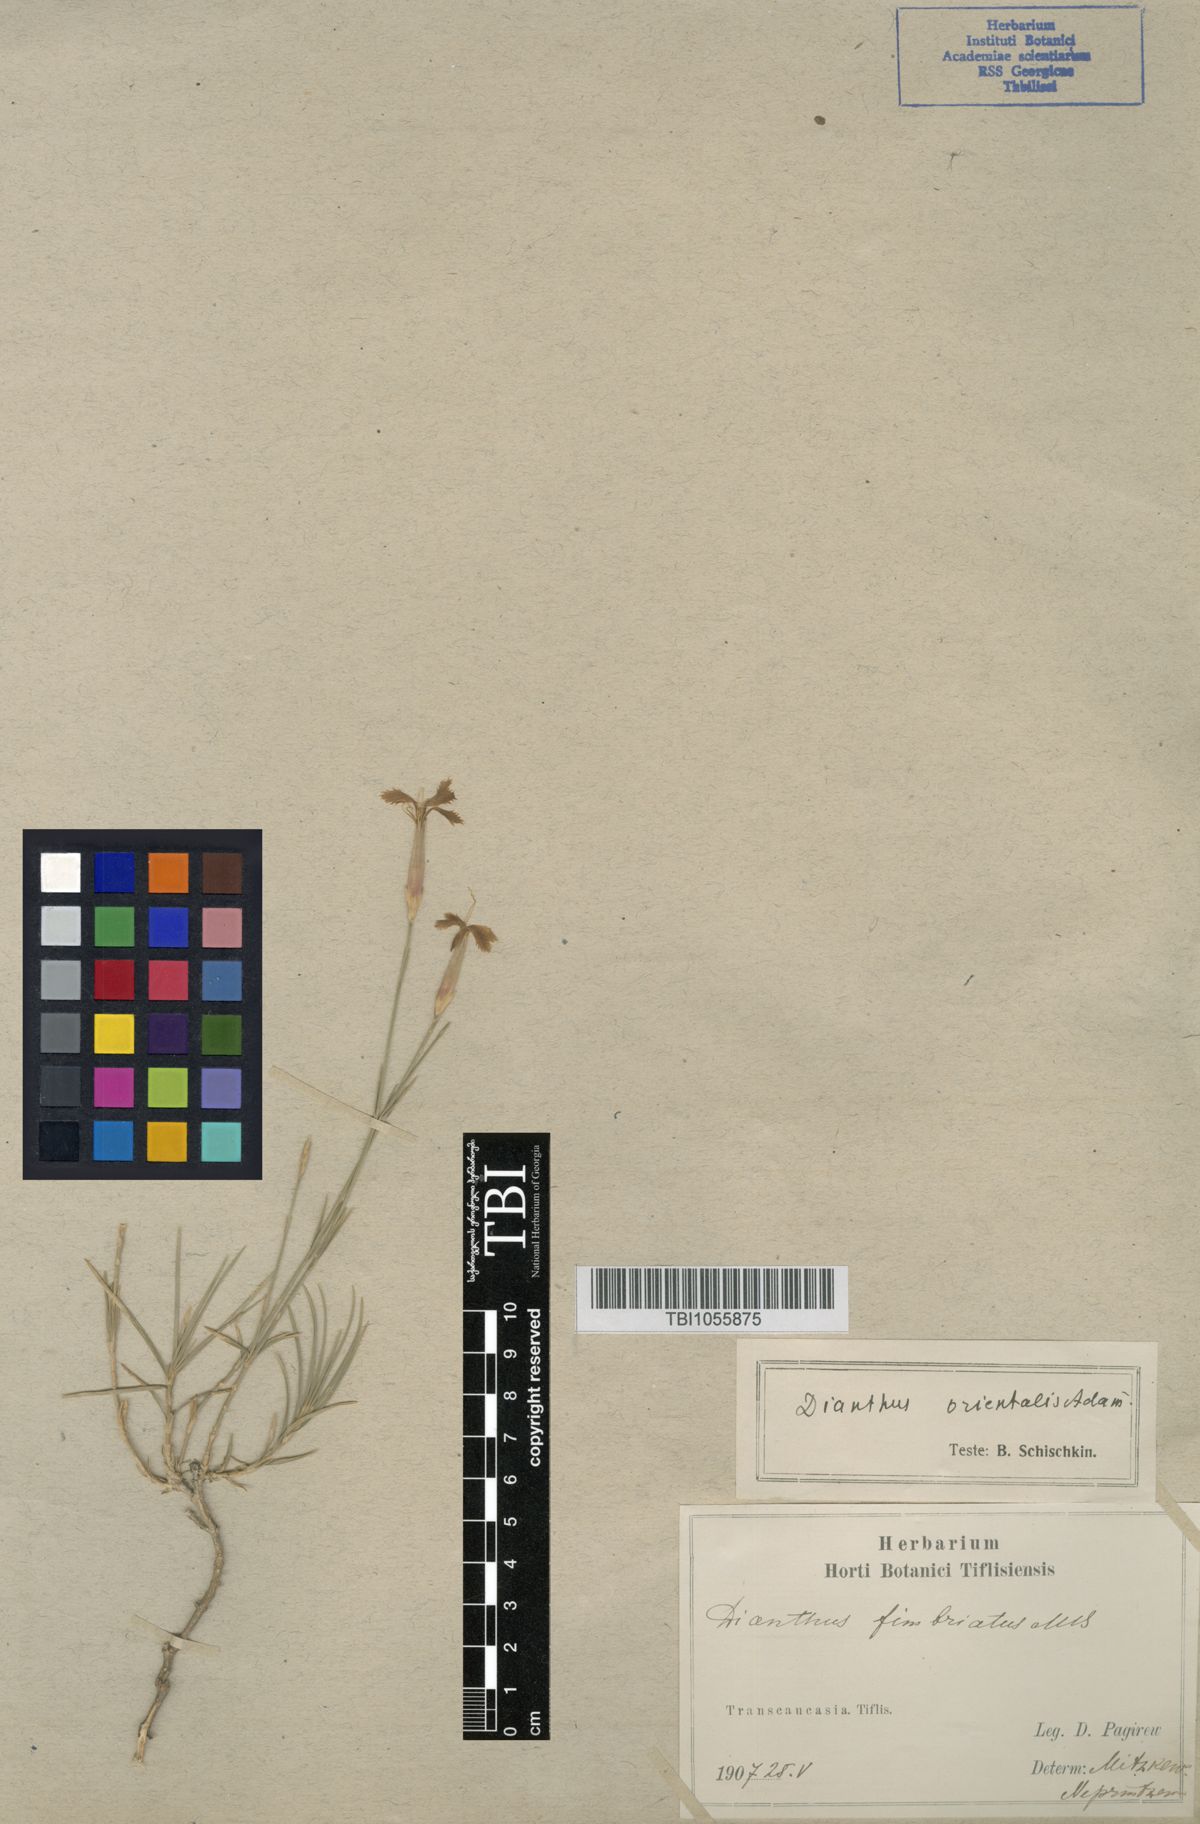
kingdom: Plantae
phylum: Tracheophyta
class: Magnoliopsida
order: Caryophyllales
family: Caryophyllaceae
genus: Dianthus
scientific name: Dianthus orientalis
